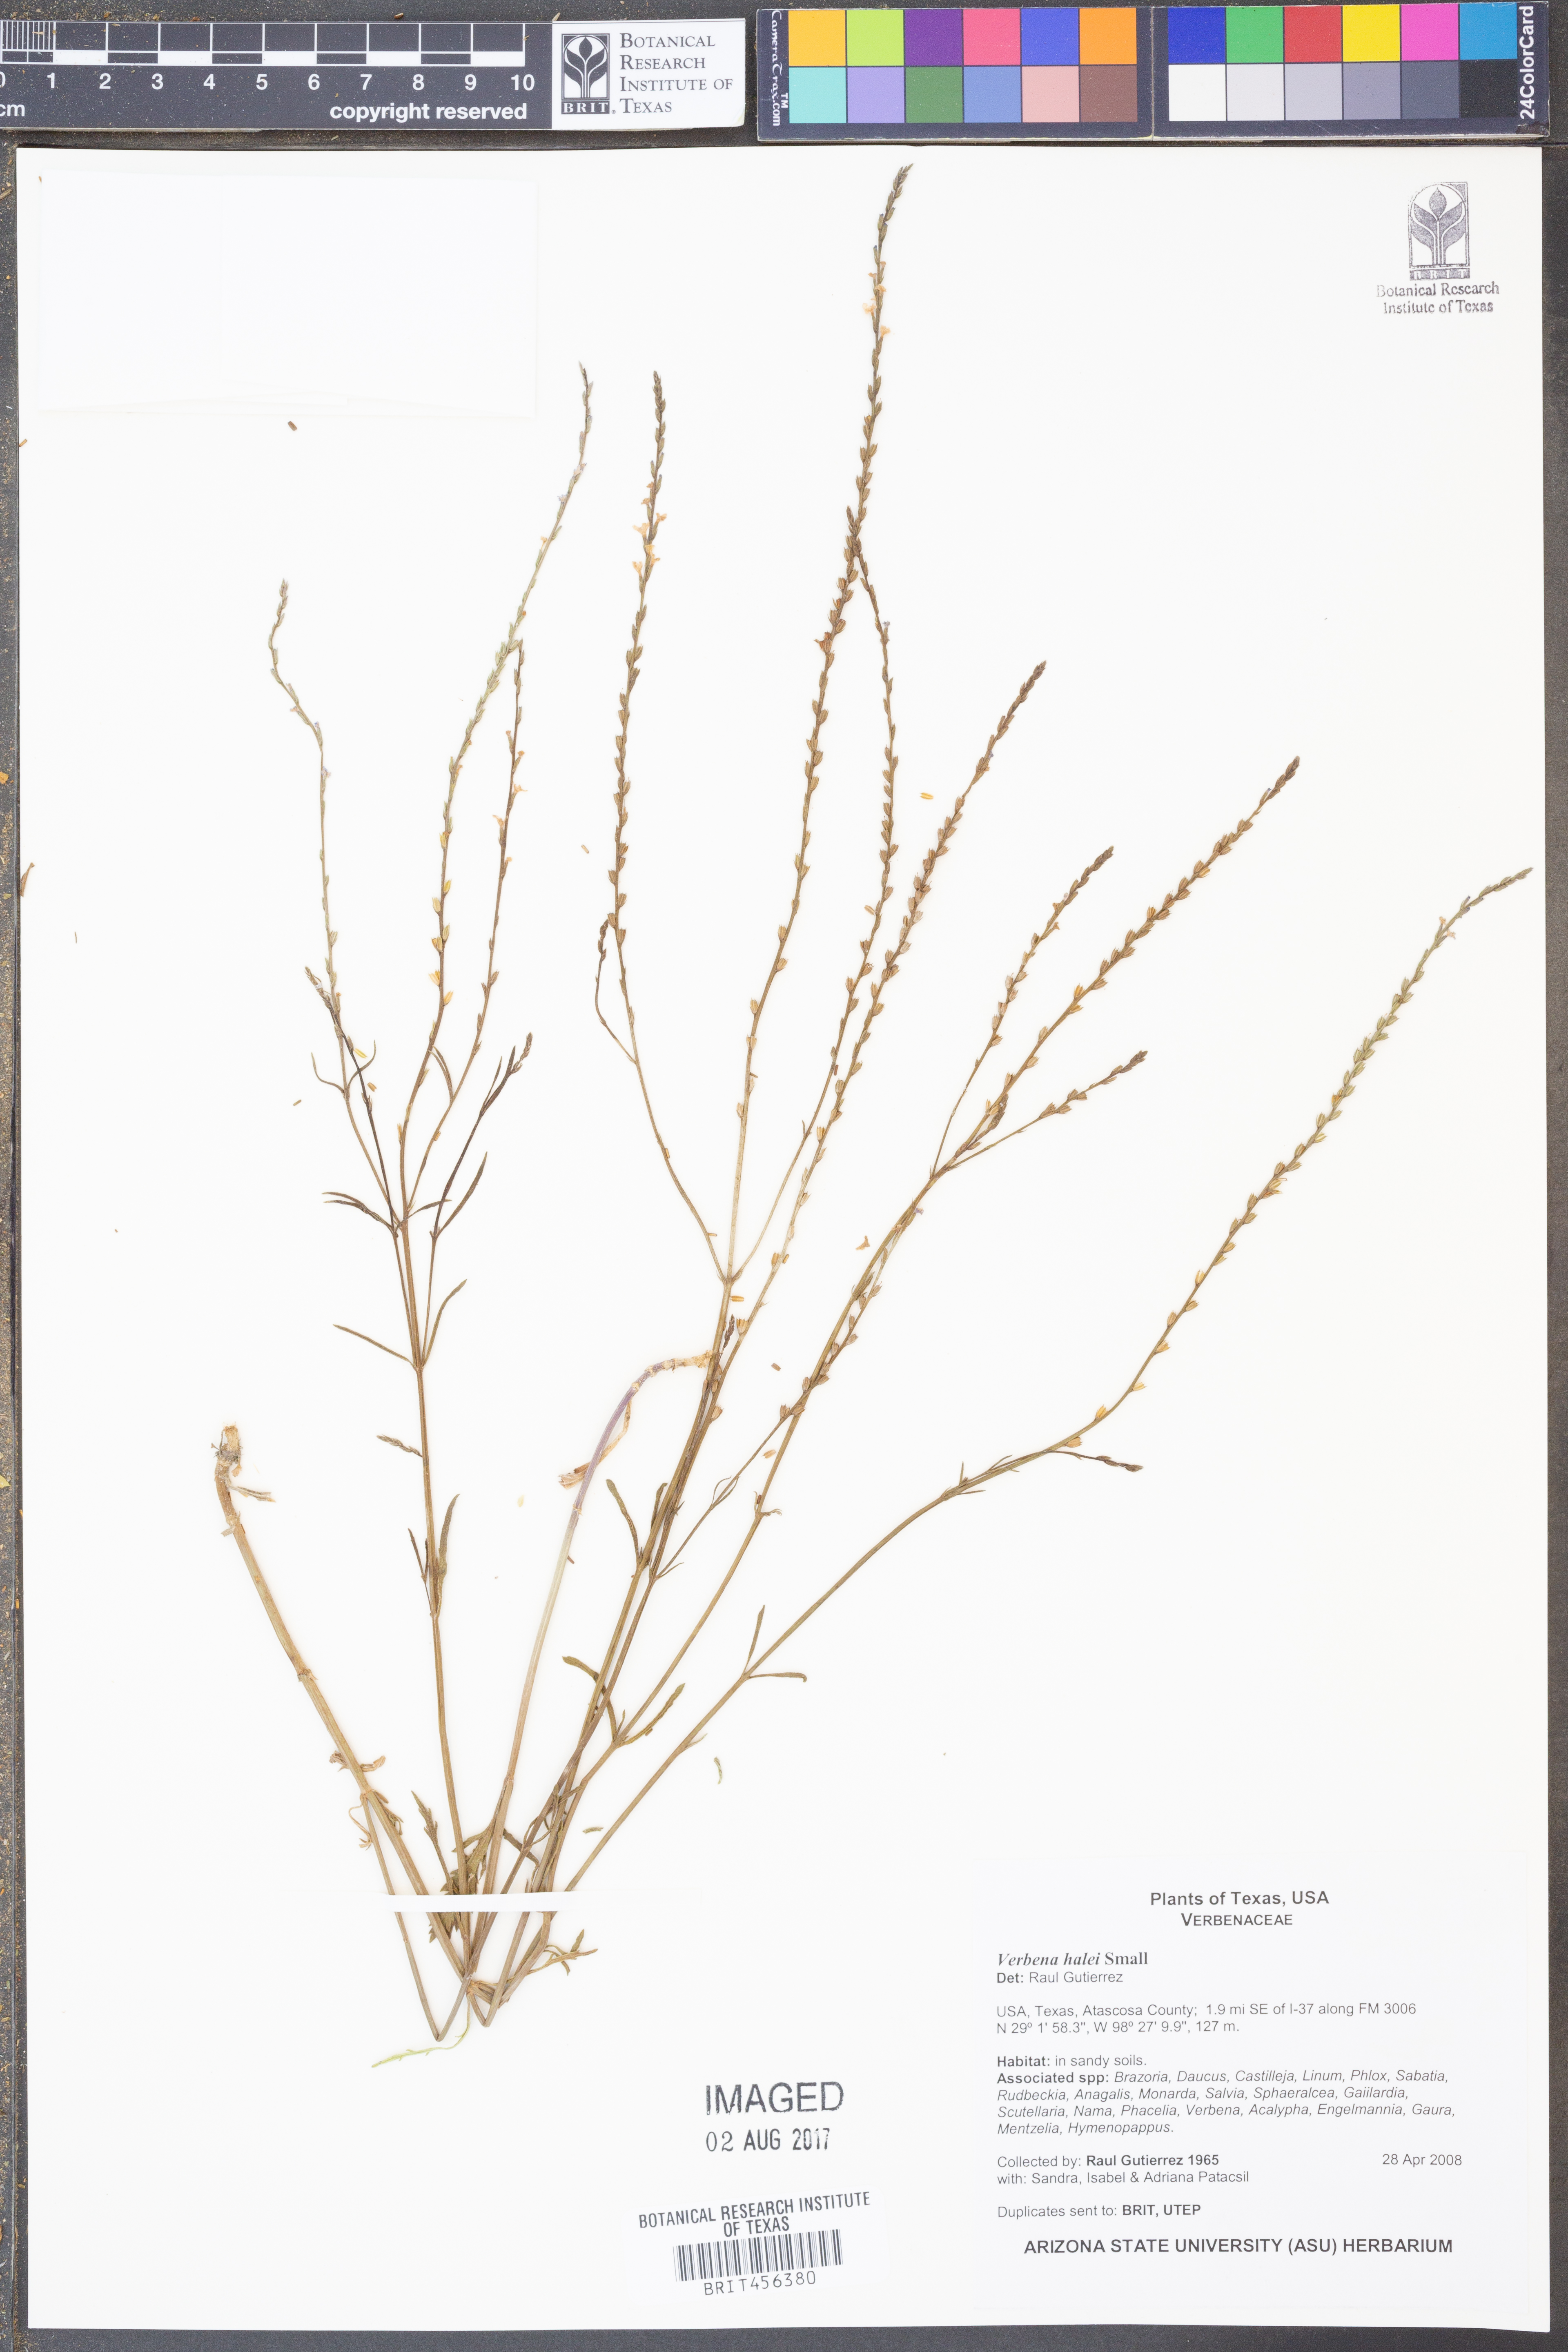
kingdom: Plantae
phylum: Tracheophyta
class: Magnoliopsida
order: Lamiales
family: Verbenaceae
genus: Verbena
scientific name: Verbena halei
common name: Texas vervain
